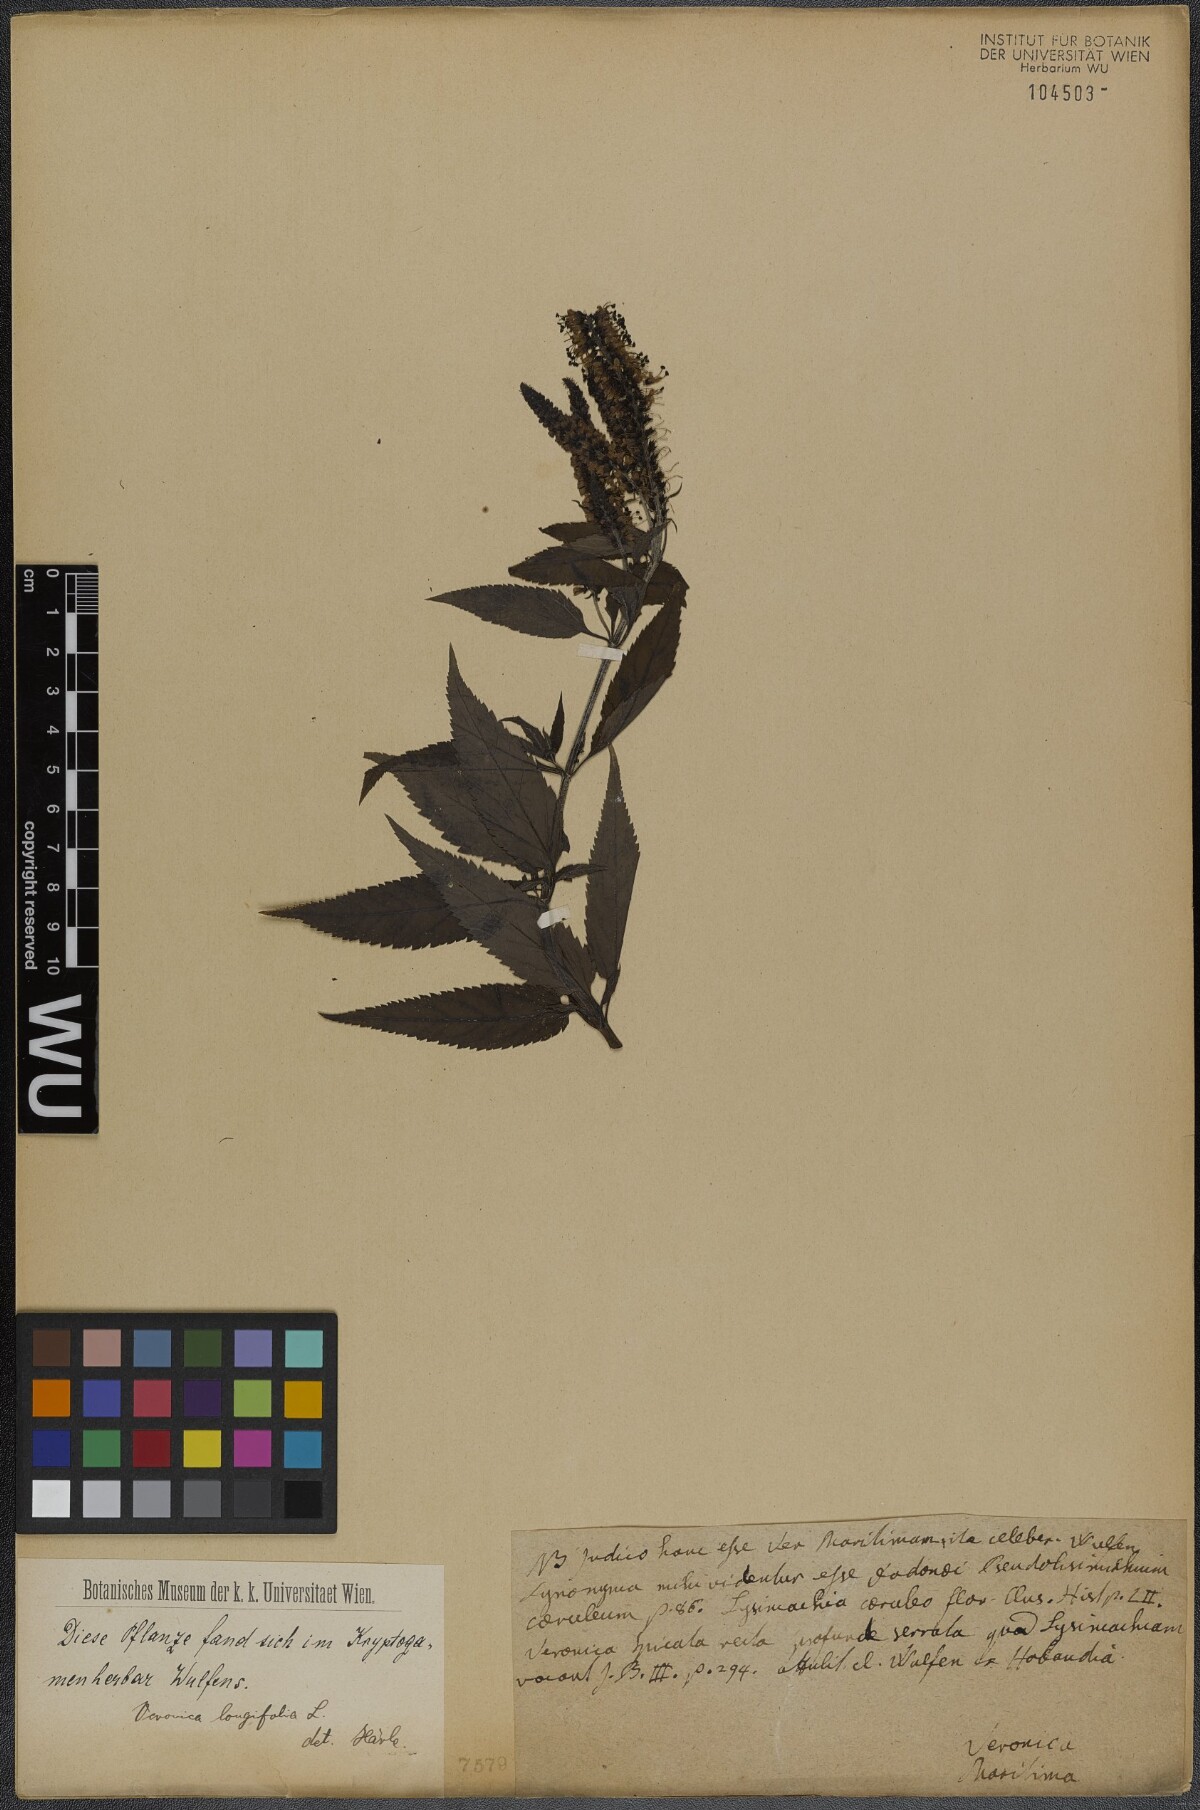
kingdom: Plantae
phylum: Tracheophyta
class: Magnoliopsida
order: Lamiales
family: Plantaginaceae
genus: Veronica
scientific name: Veronica longifolia
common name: Garden speedwell
